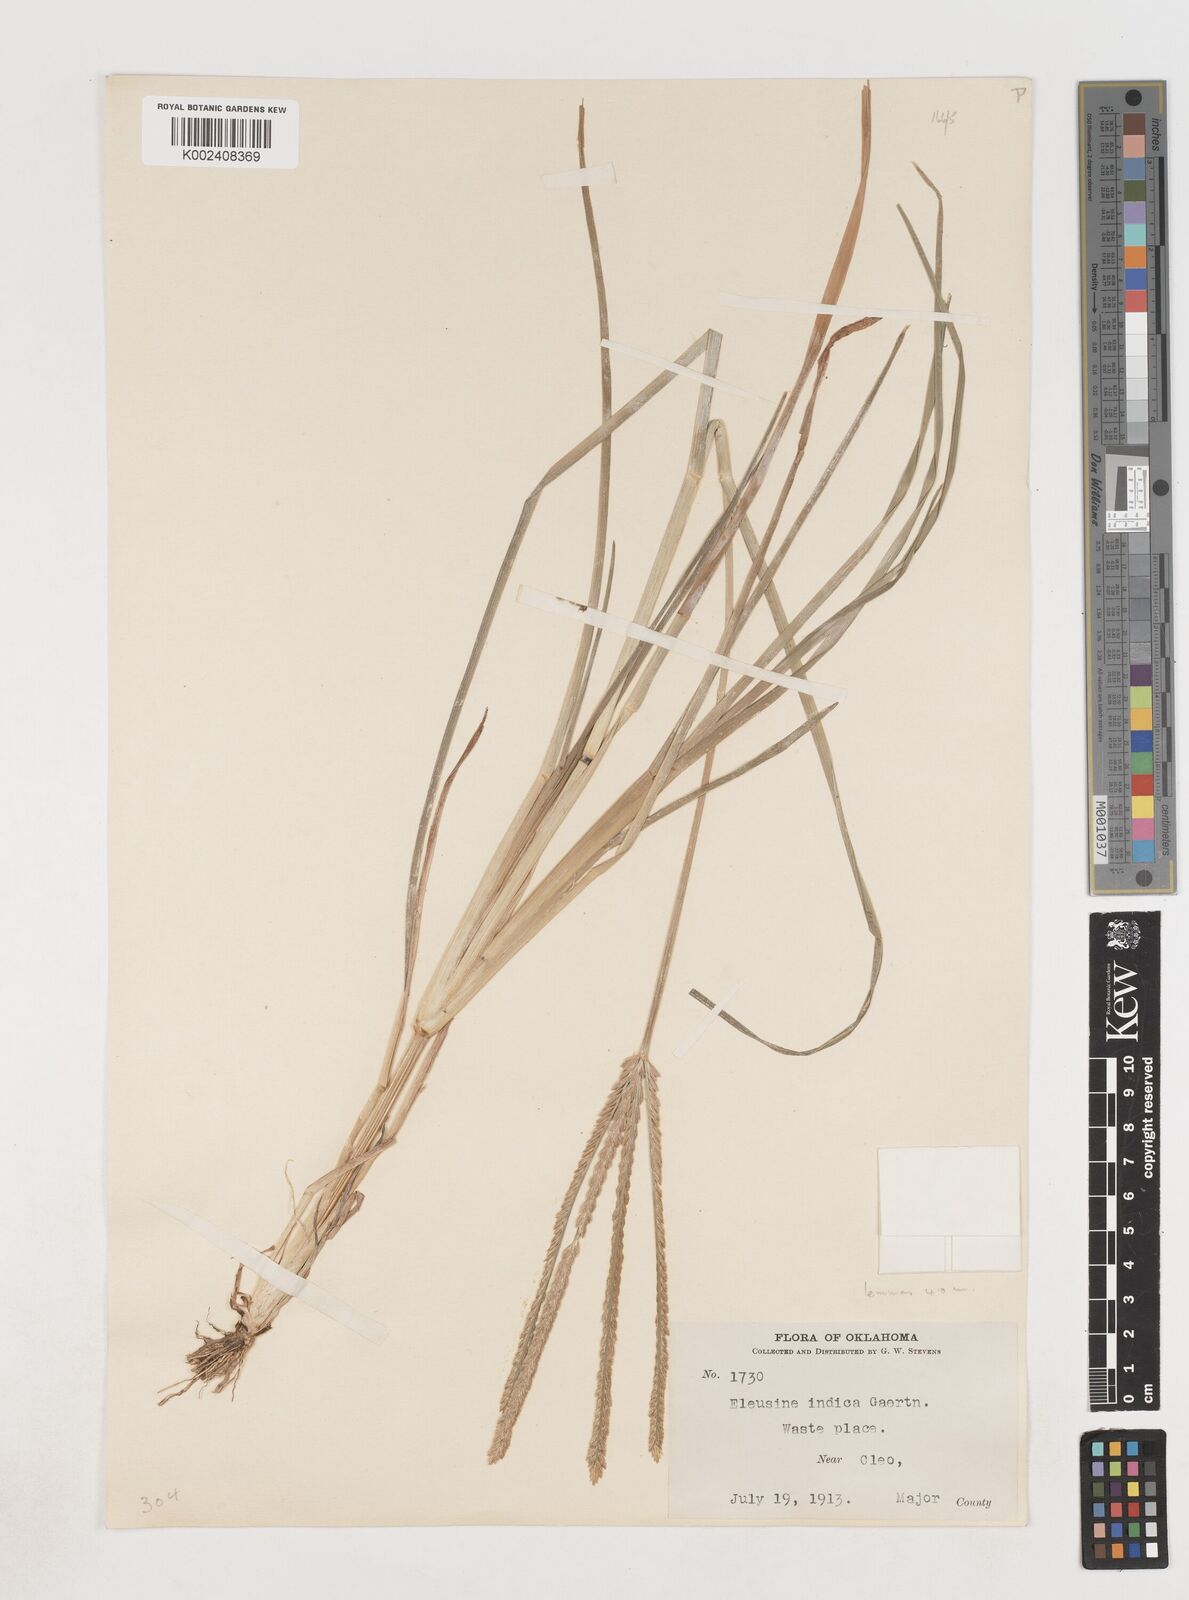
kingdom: Plantae
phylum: Tracheophyta
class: Liliopsida
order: Poales
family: Poaceae
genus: Eleusine
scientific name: Eleusine indica
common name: Yard-grass
